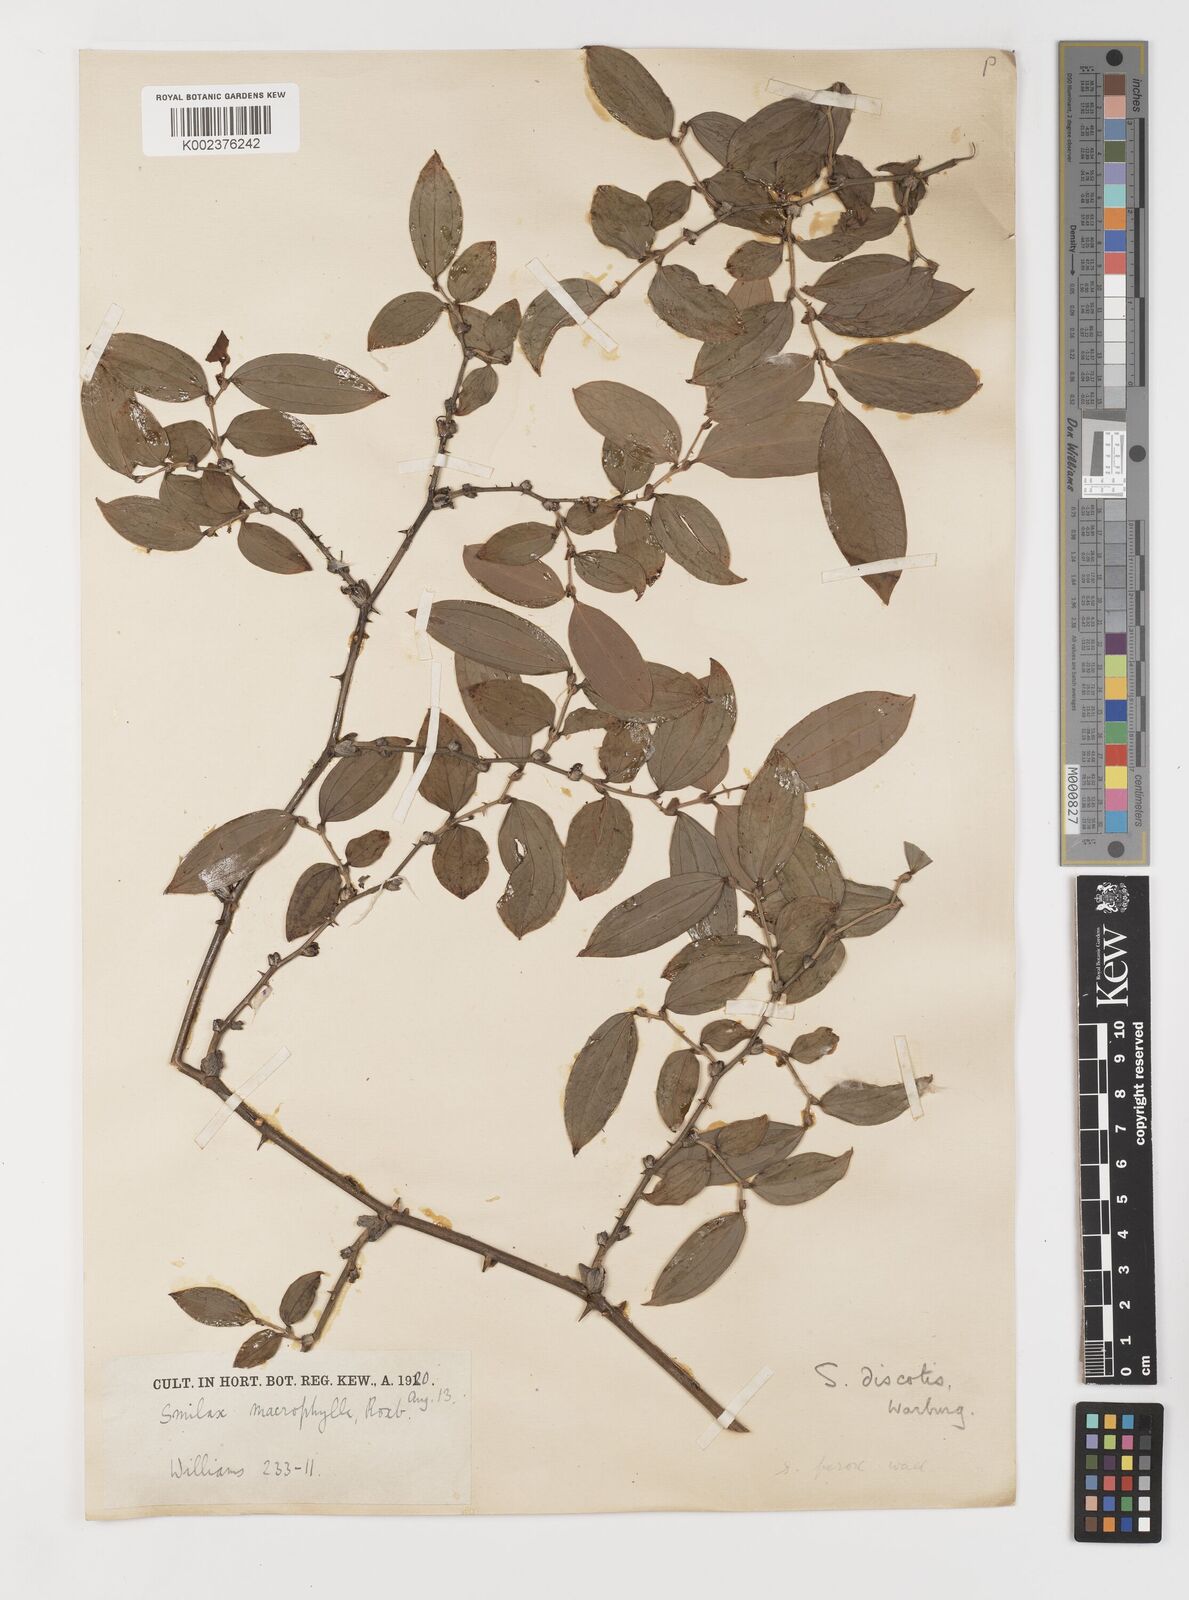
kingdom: Plantae
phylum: Tracheophyta
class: Liliopsida
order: Liliales
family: Smilacaceae
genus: Smilax
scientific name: Smilax ferox
